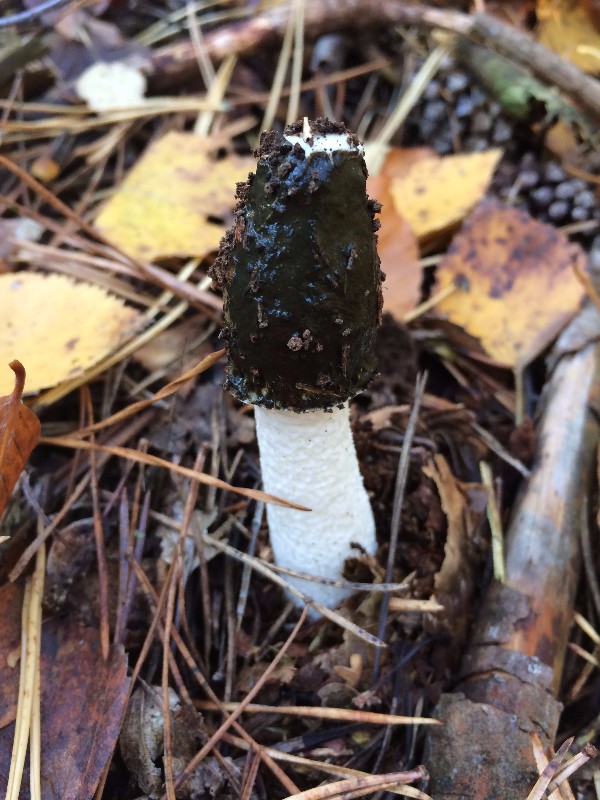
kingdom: Fungi
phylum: Basidiomycota
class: Agaricomycetes
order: Phallales
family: Phallaceae
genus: Phallus
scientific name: Phallus impudicus
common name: almindelig stinksvamp
